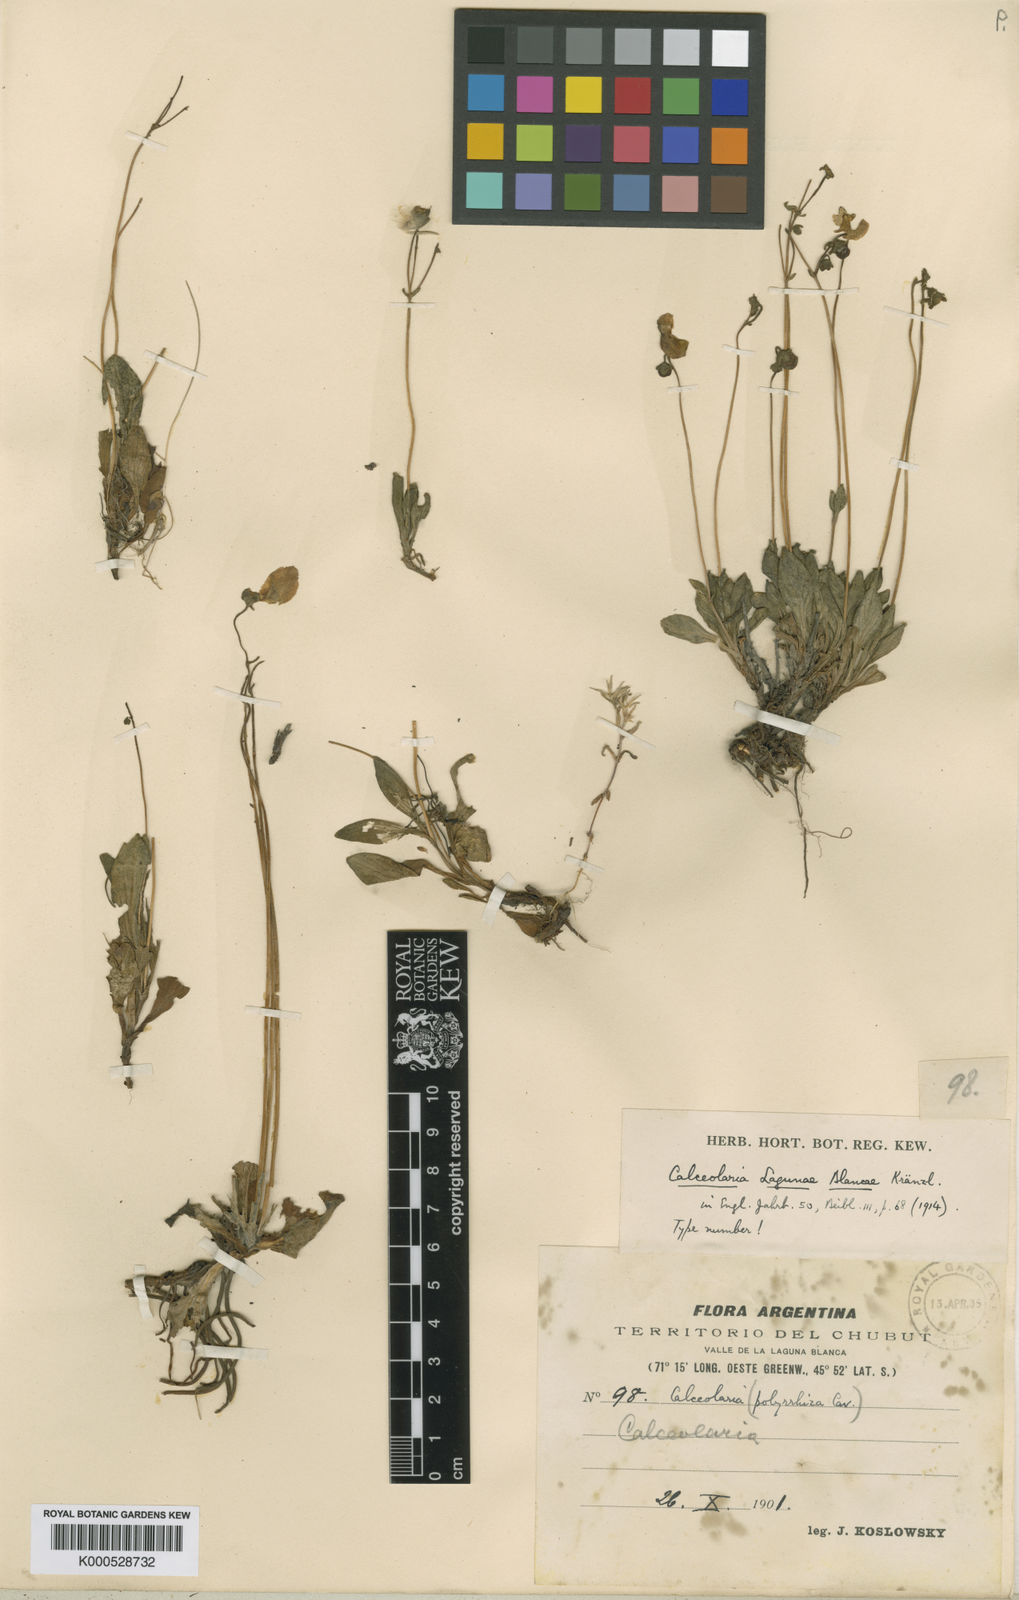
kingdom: Plantae
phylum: Tracheophyta
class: Magnoliopsida
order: Lamiales
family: Calceolariaceae
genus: Calceolaria
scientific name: Calceolaria lagunae-blancae
